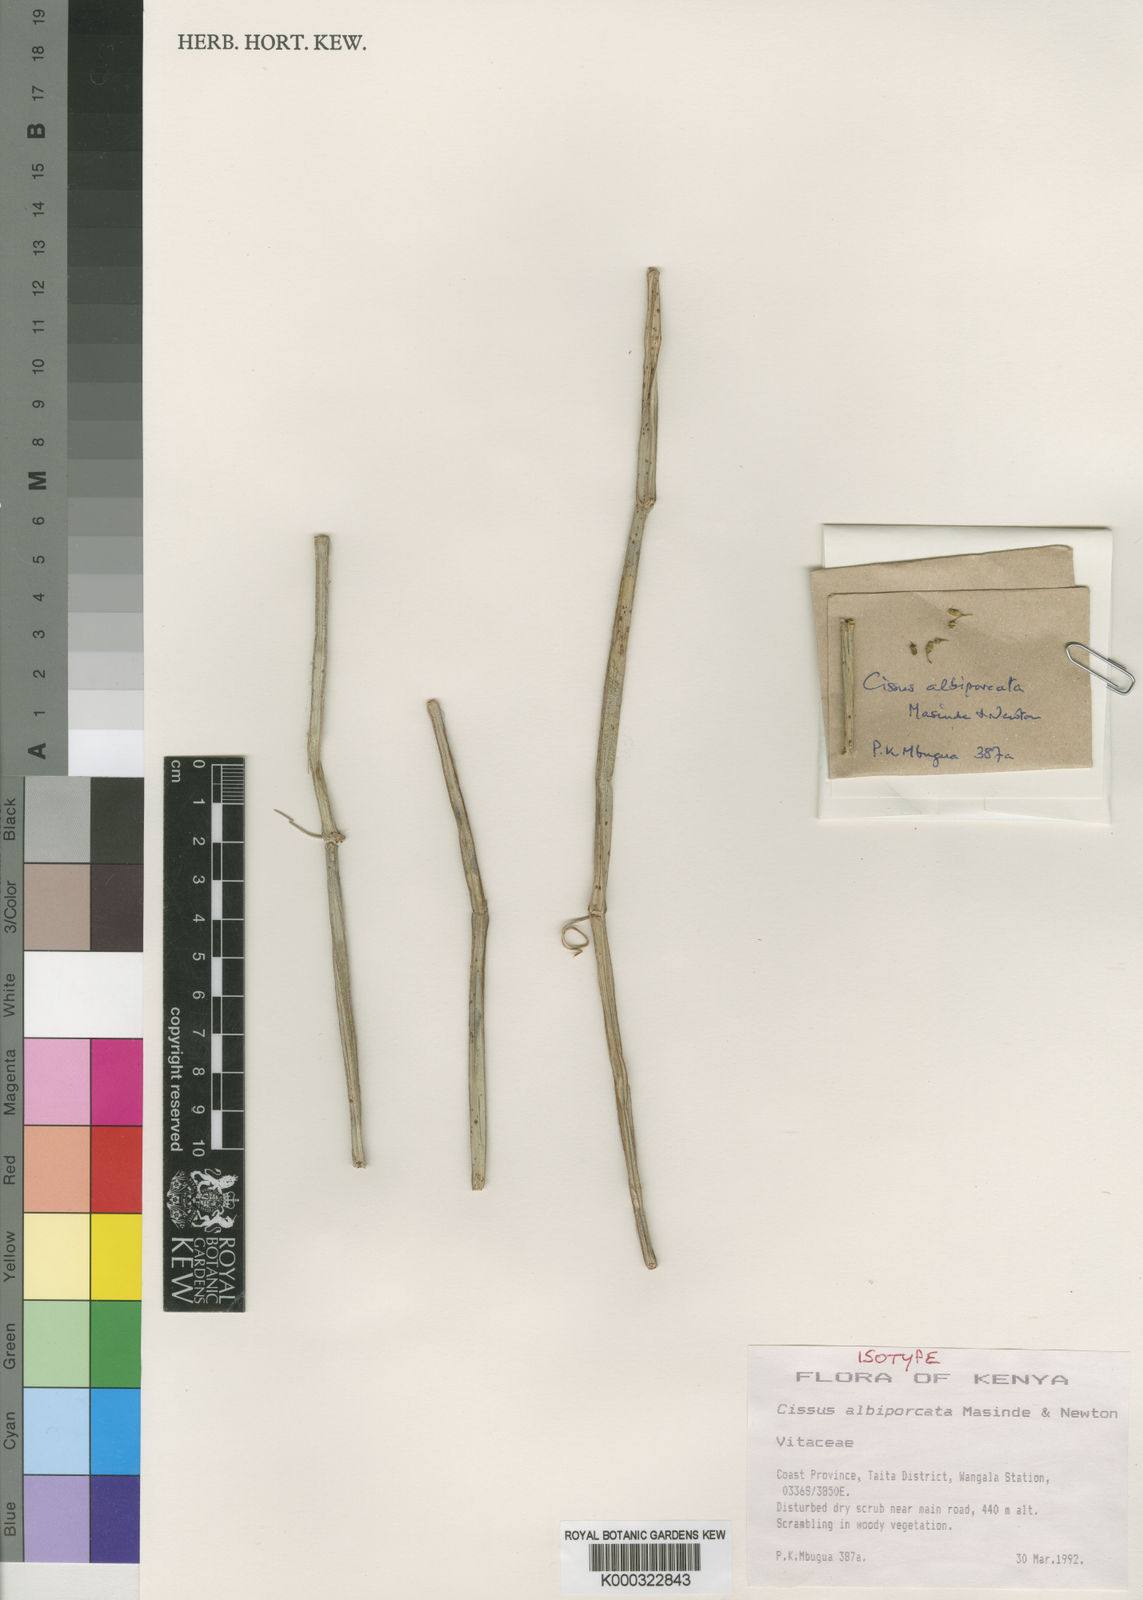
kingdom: Plantae
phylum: Tracheophyta
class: Magnoliopsida
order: Vitales
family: Vitaceae
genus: Cissus
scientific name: Cissus albiporcata
